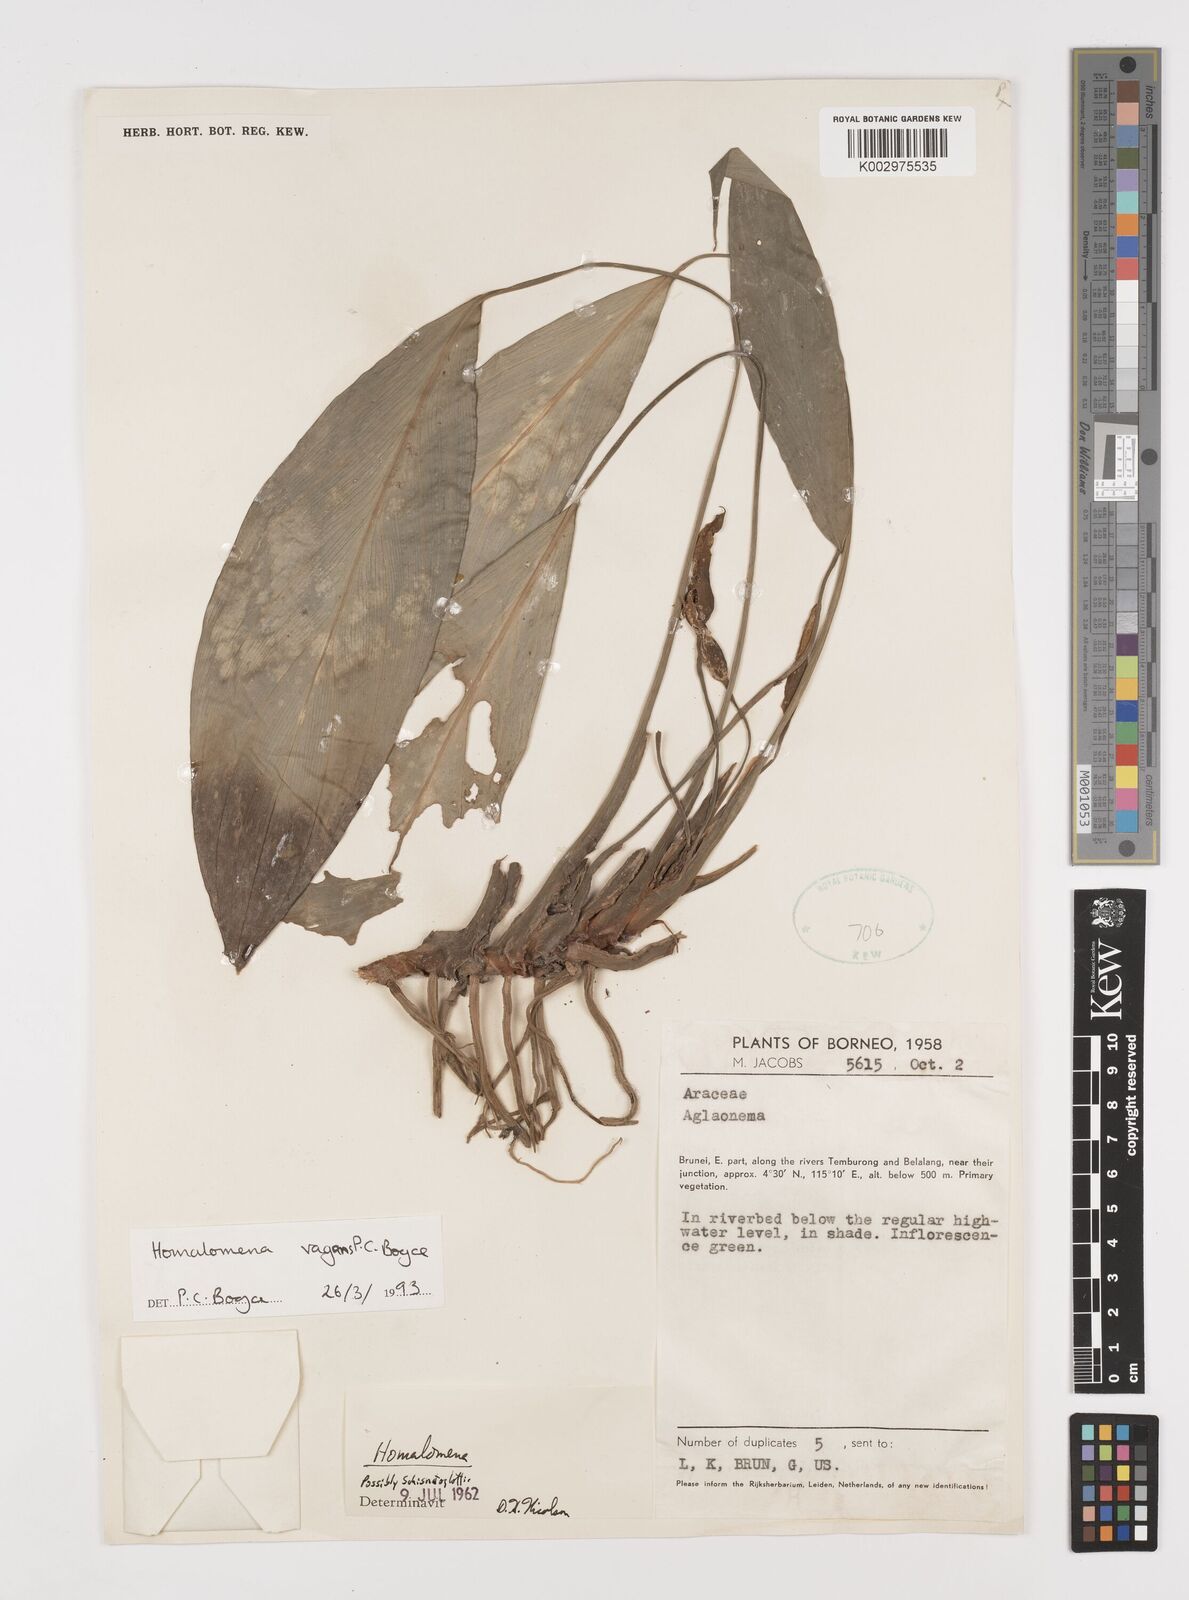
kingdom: Plantae
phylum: Tracheophyta
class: Liliopsida
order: Alismatales
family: Araceae
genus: Homalomena
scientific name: Homalomena vagans
